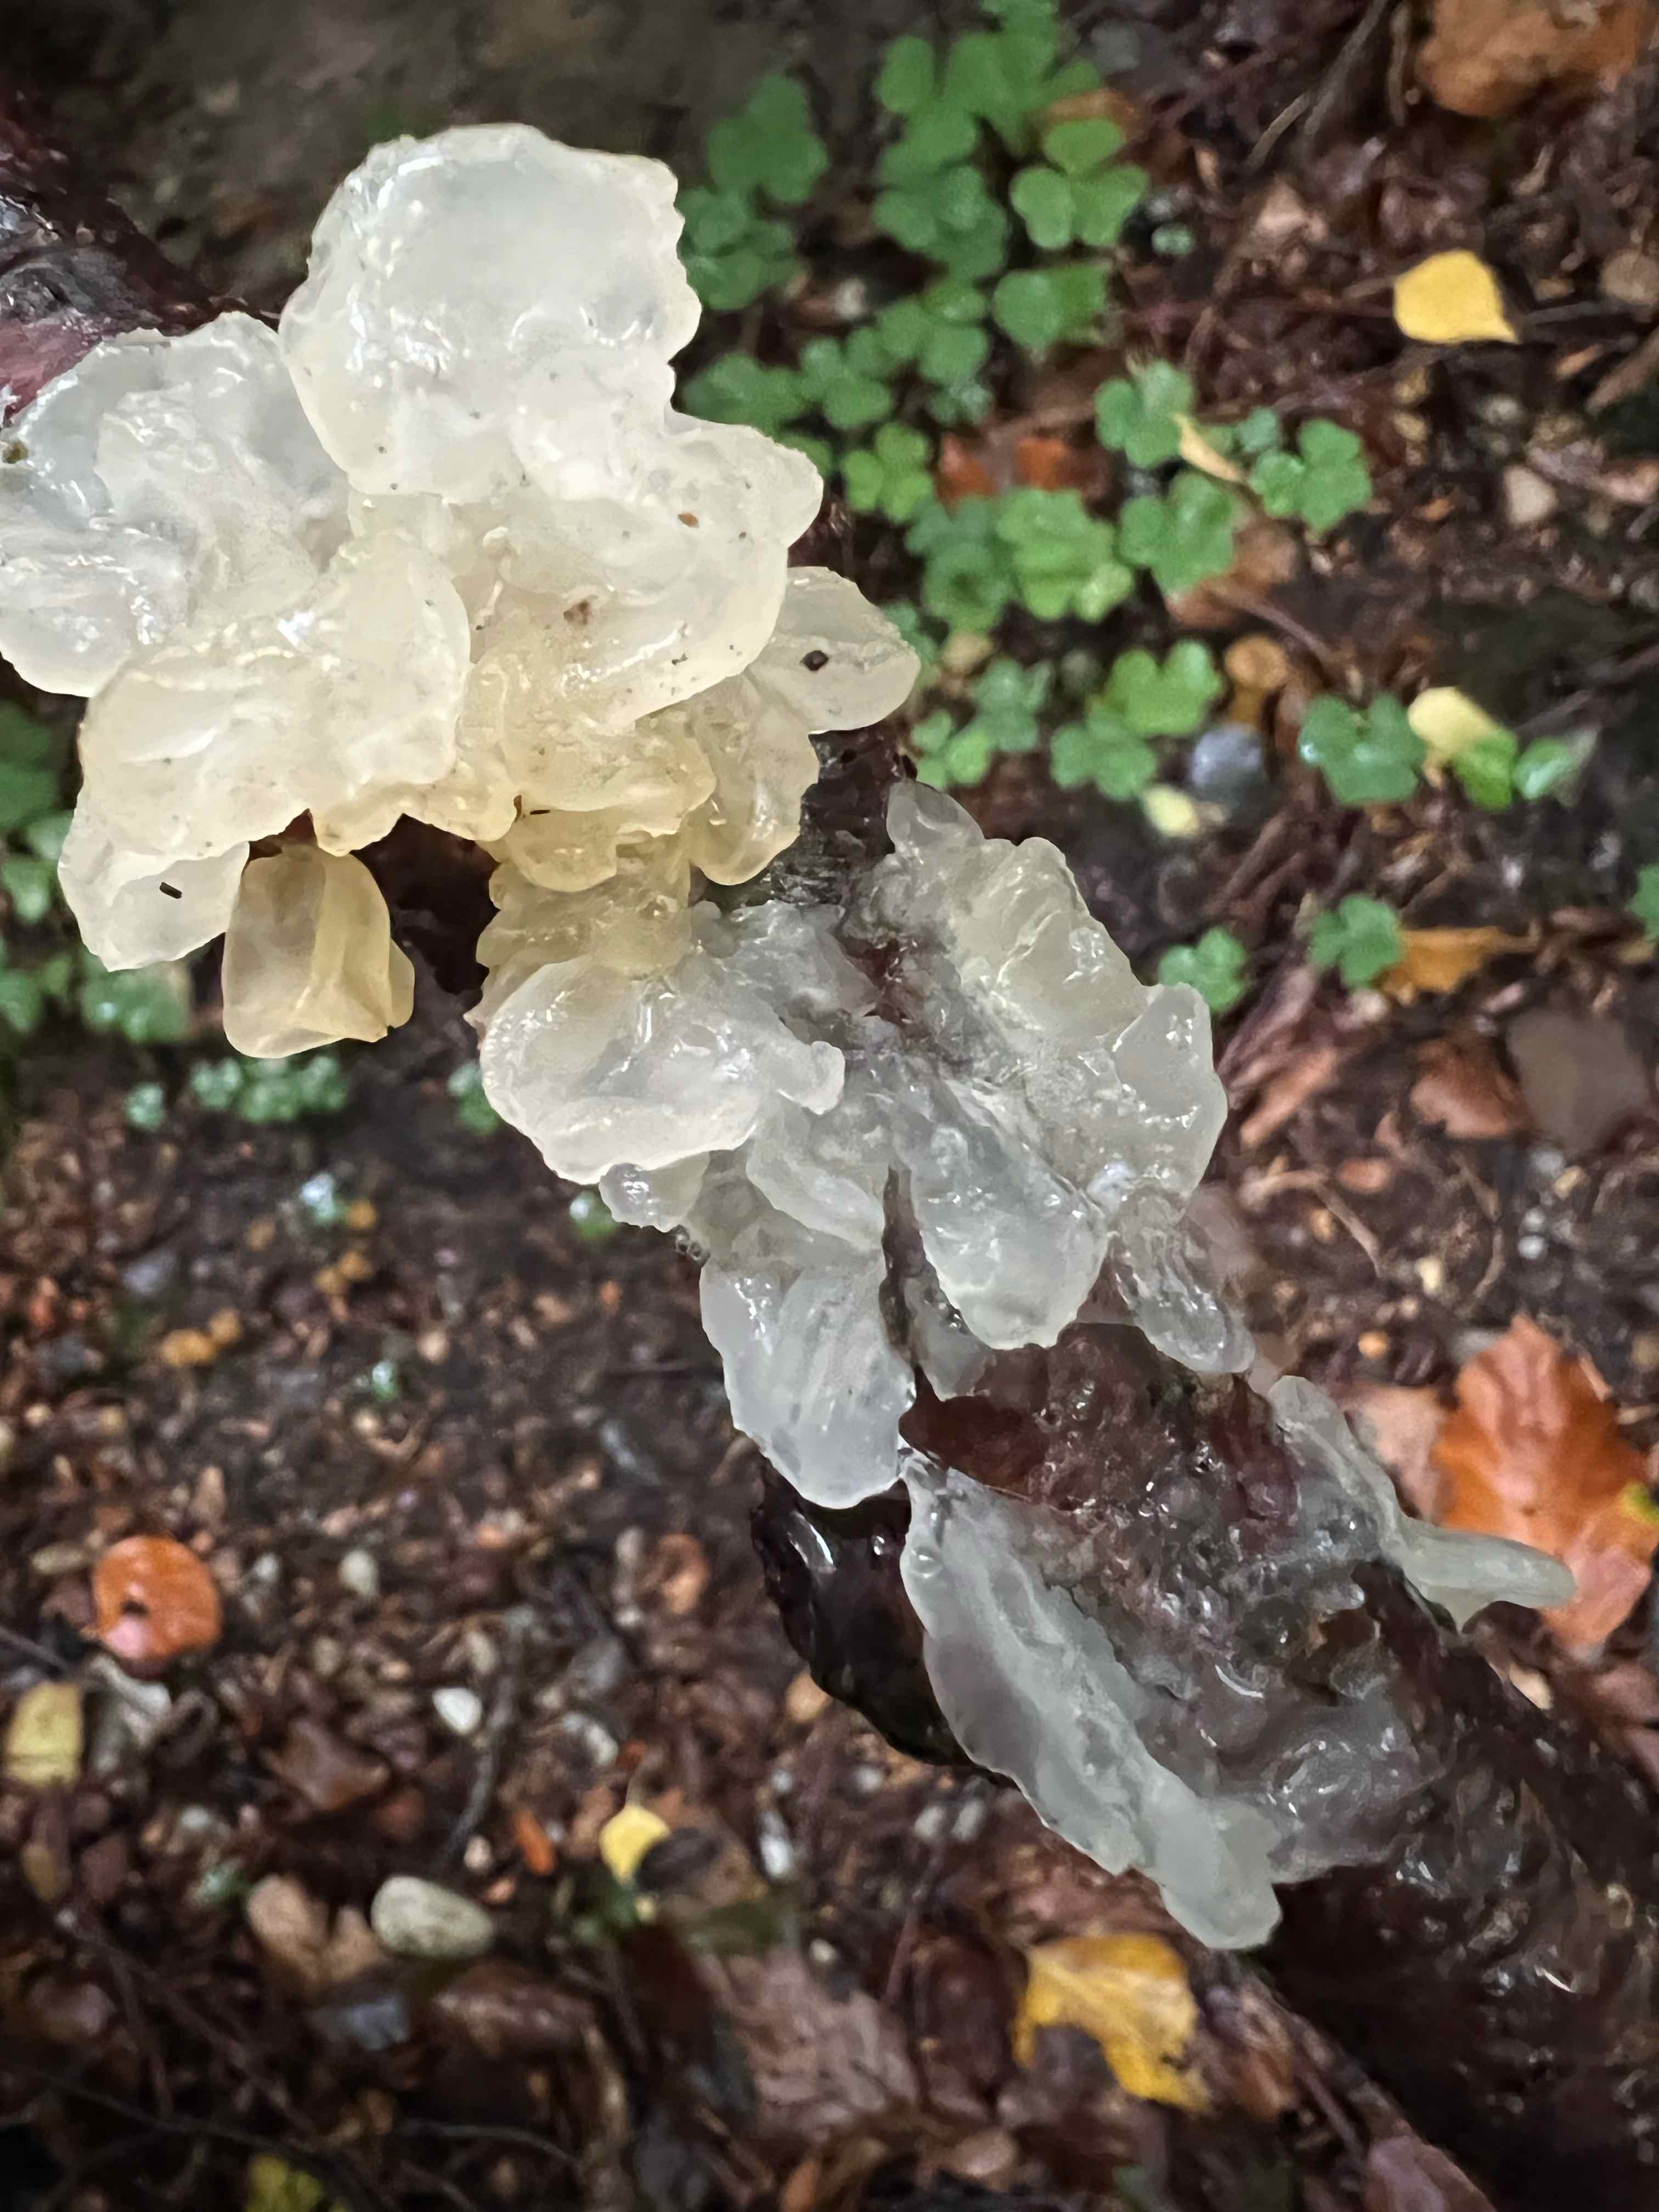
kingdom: Fungi
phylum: Basidiomycota
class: Tremellomycetes
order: Tremellales
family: Tremellaceae
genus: Tremella
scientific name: Tremella mesenterica
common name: gul bævresvamp
